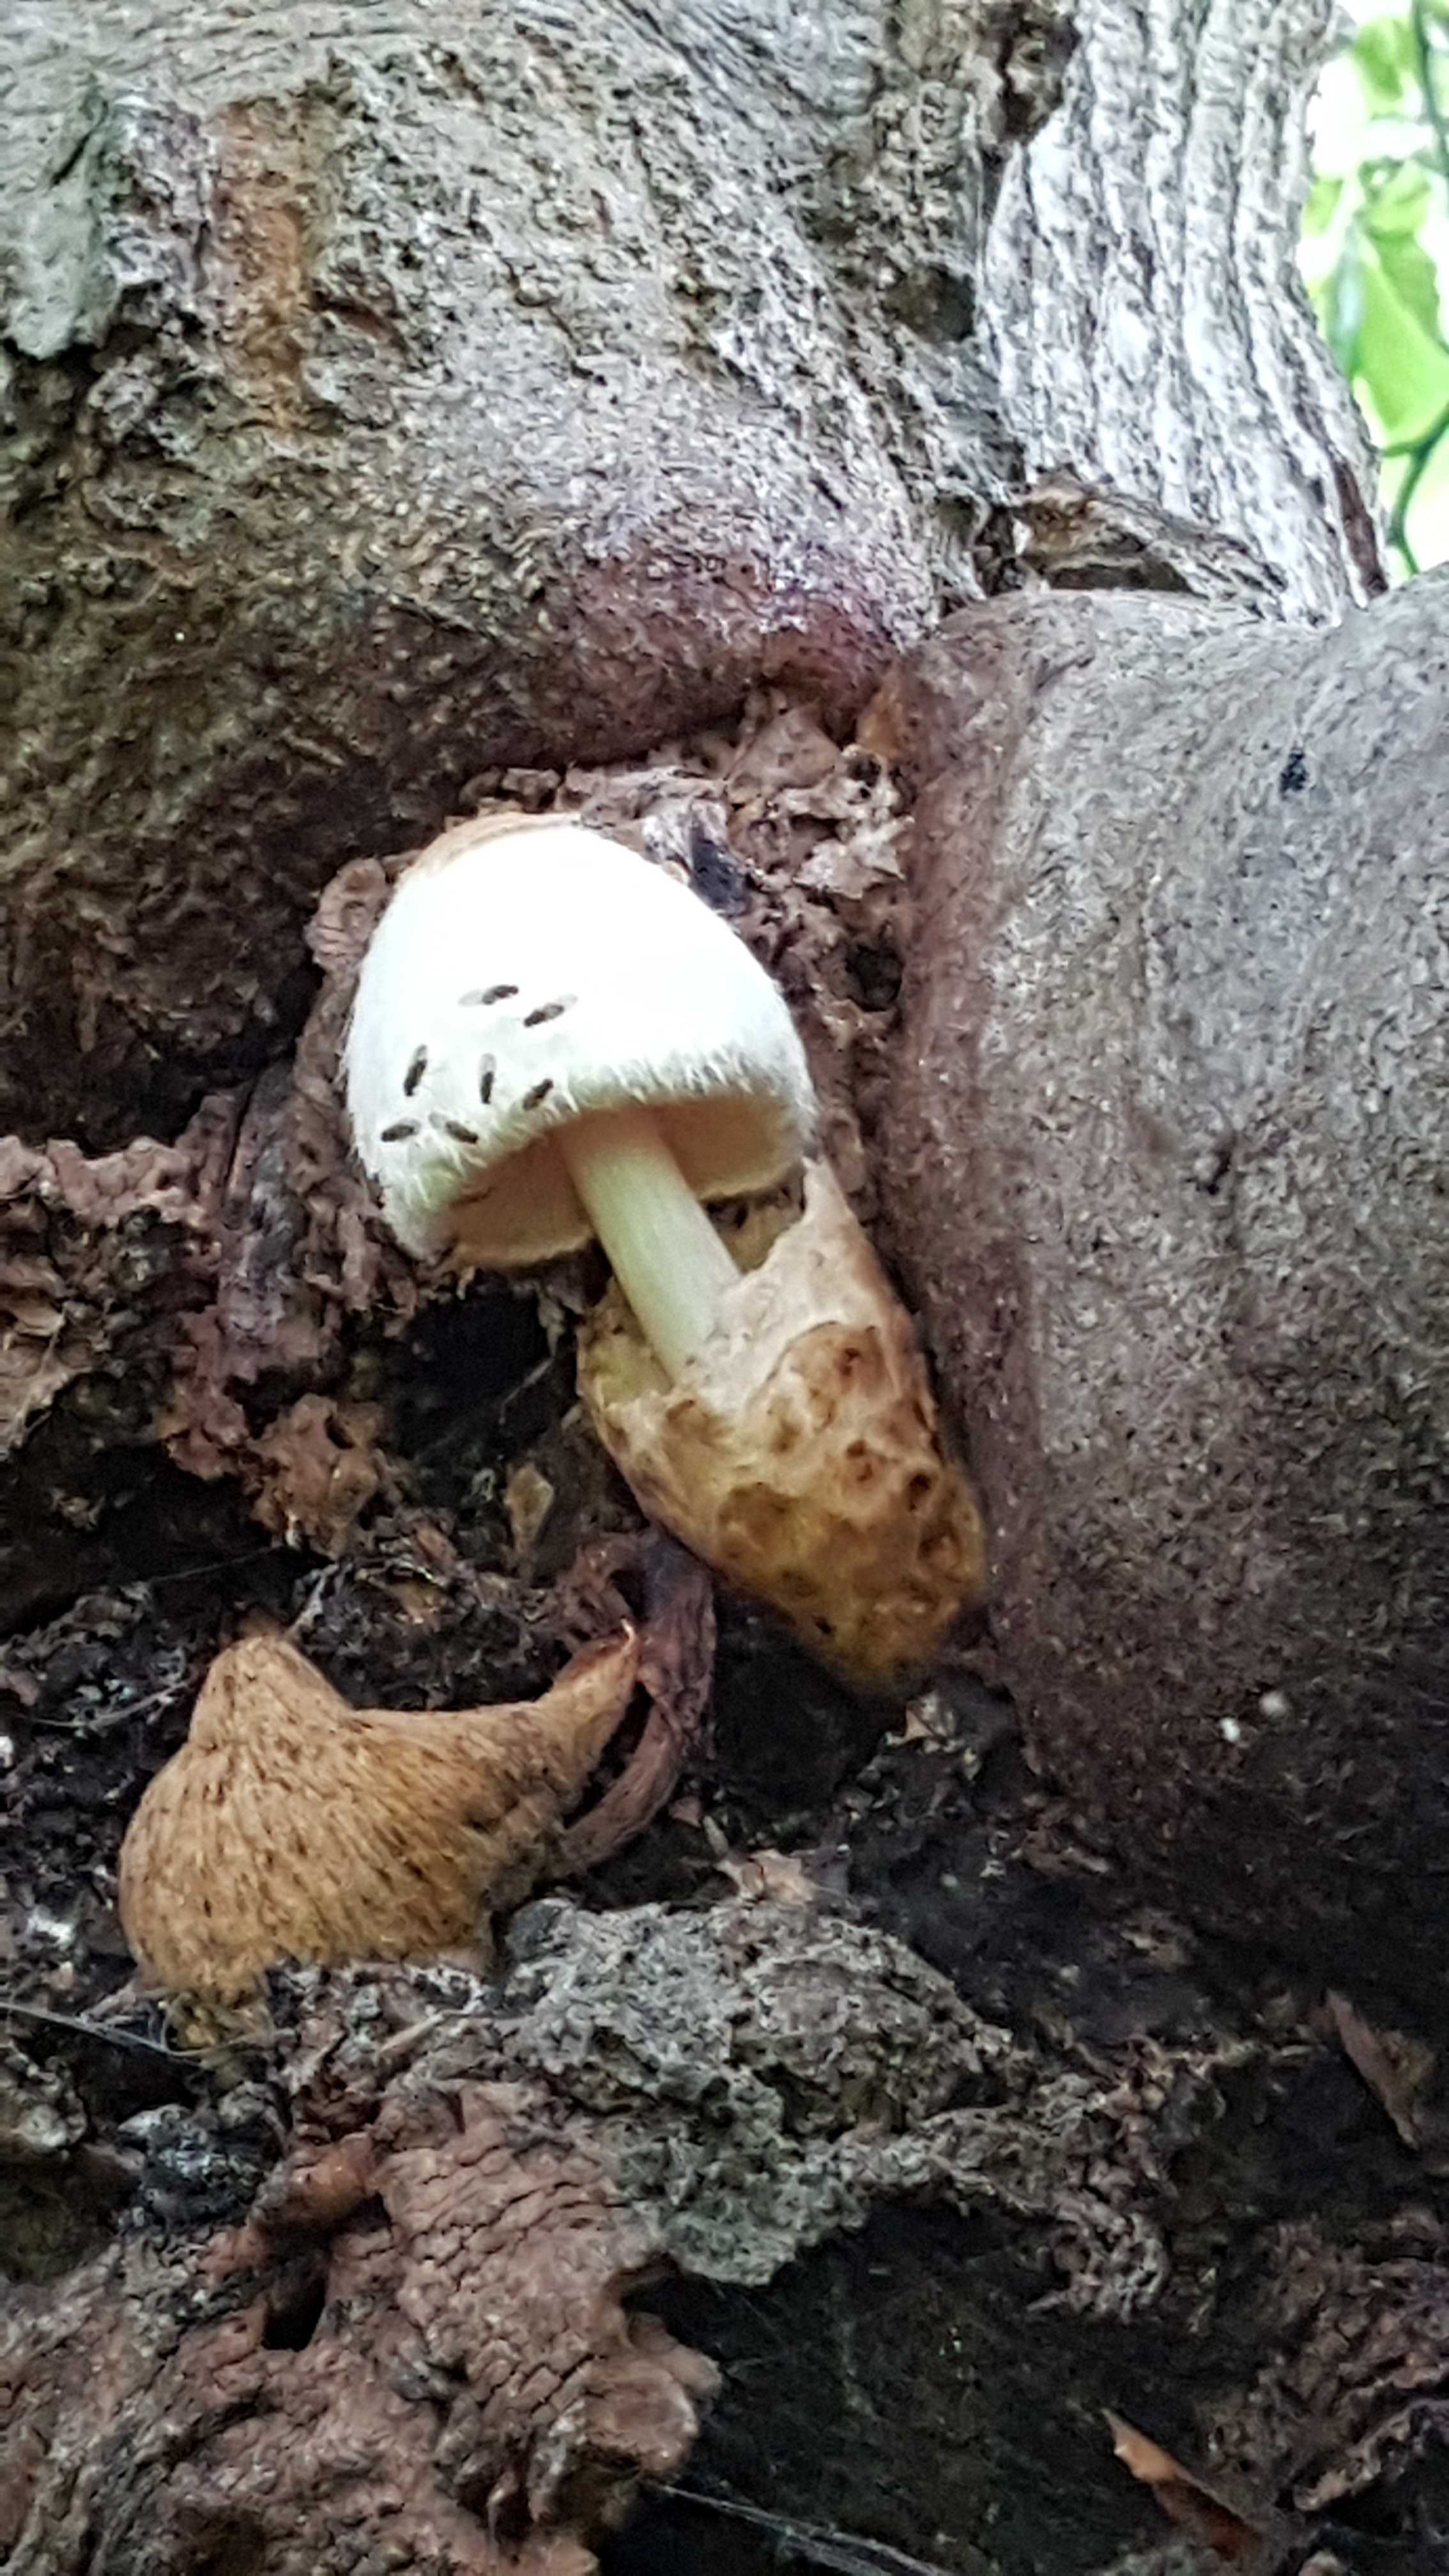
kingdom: Fungi
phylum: Basidiomycota
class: Agaricomycetes
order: Agaricales
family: Pluteaceae
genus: Volvariella
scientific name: Volvariella bombycina
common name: silkehåret posesvamp
